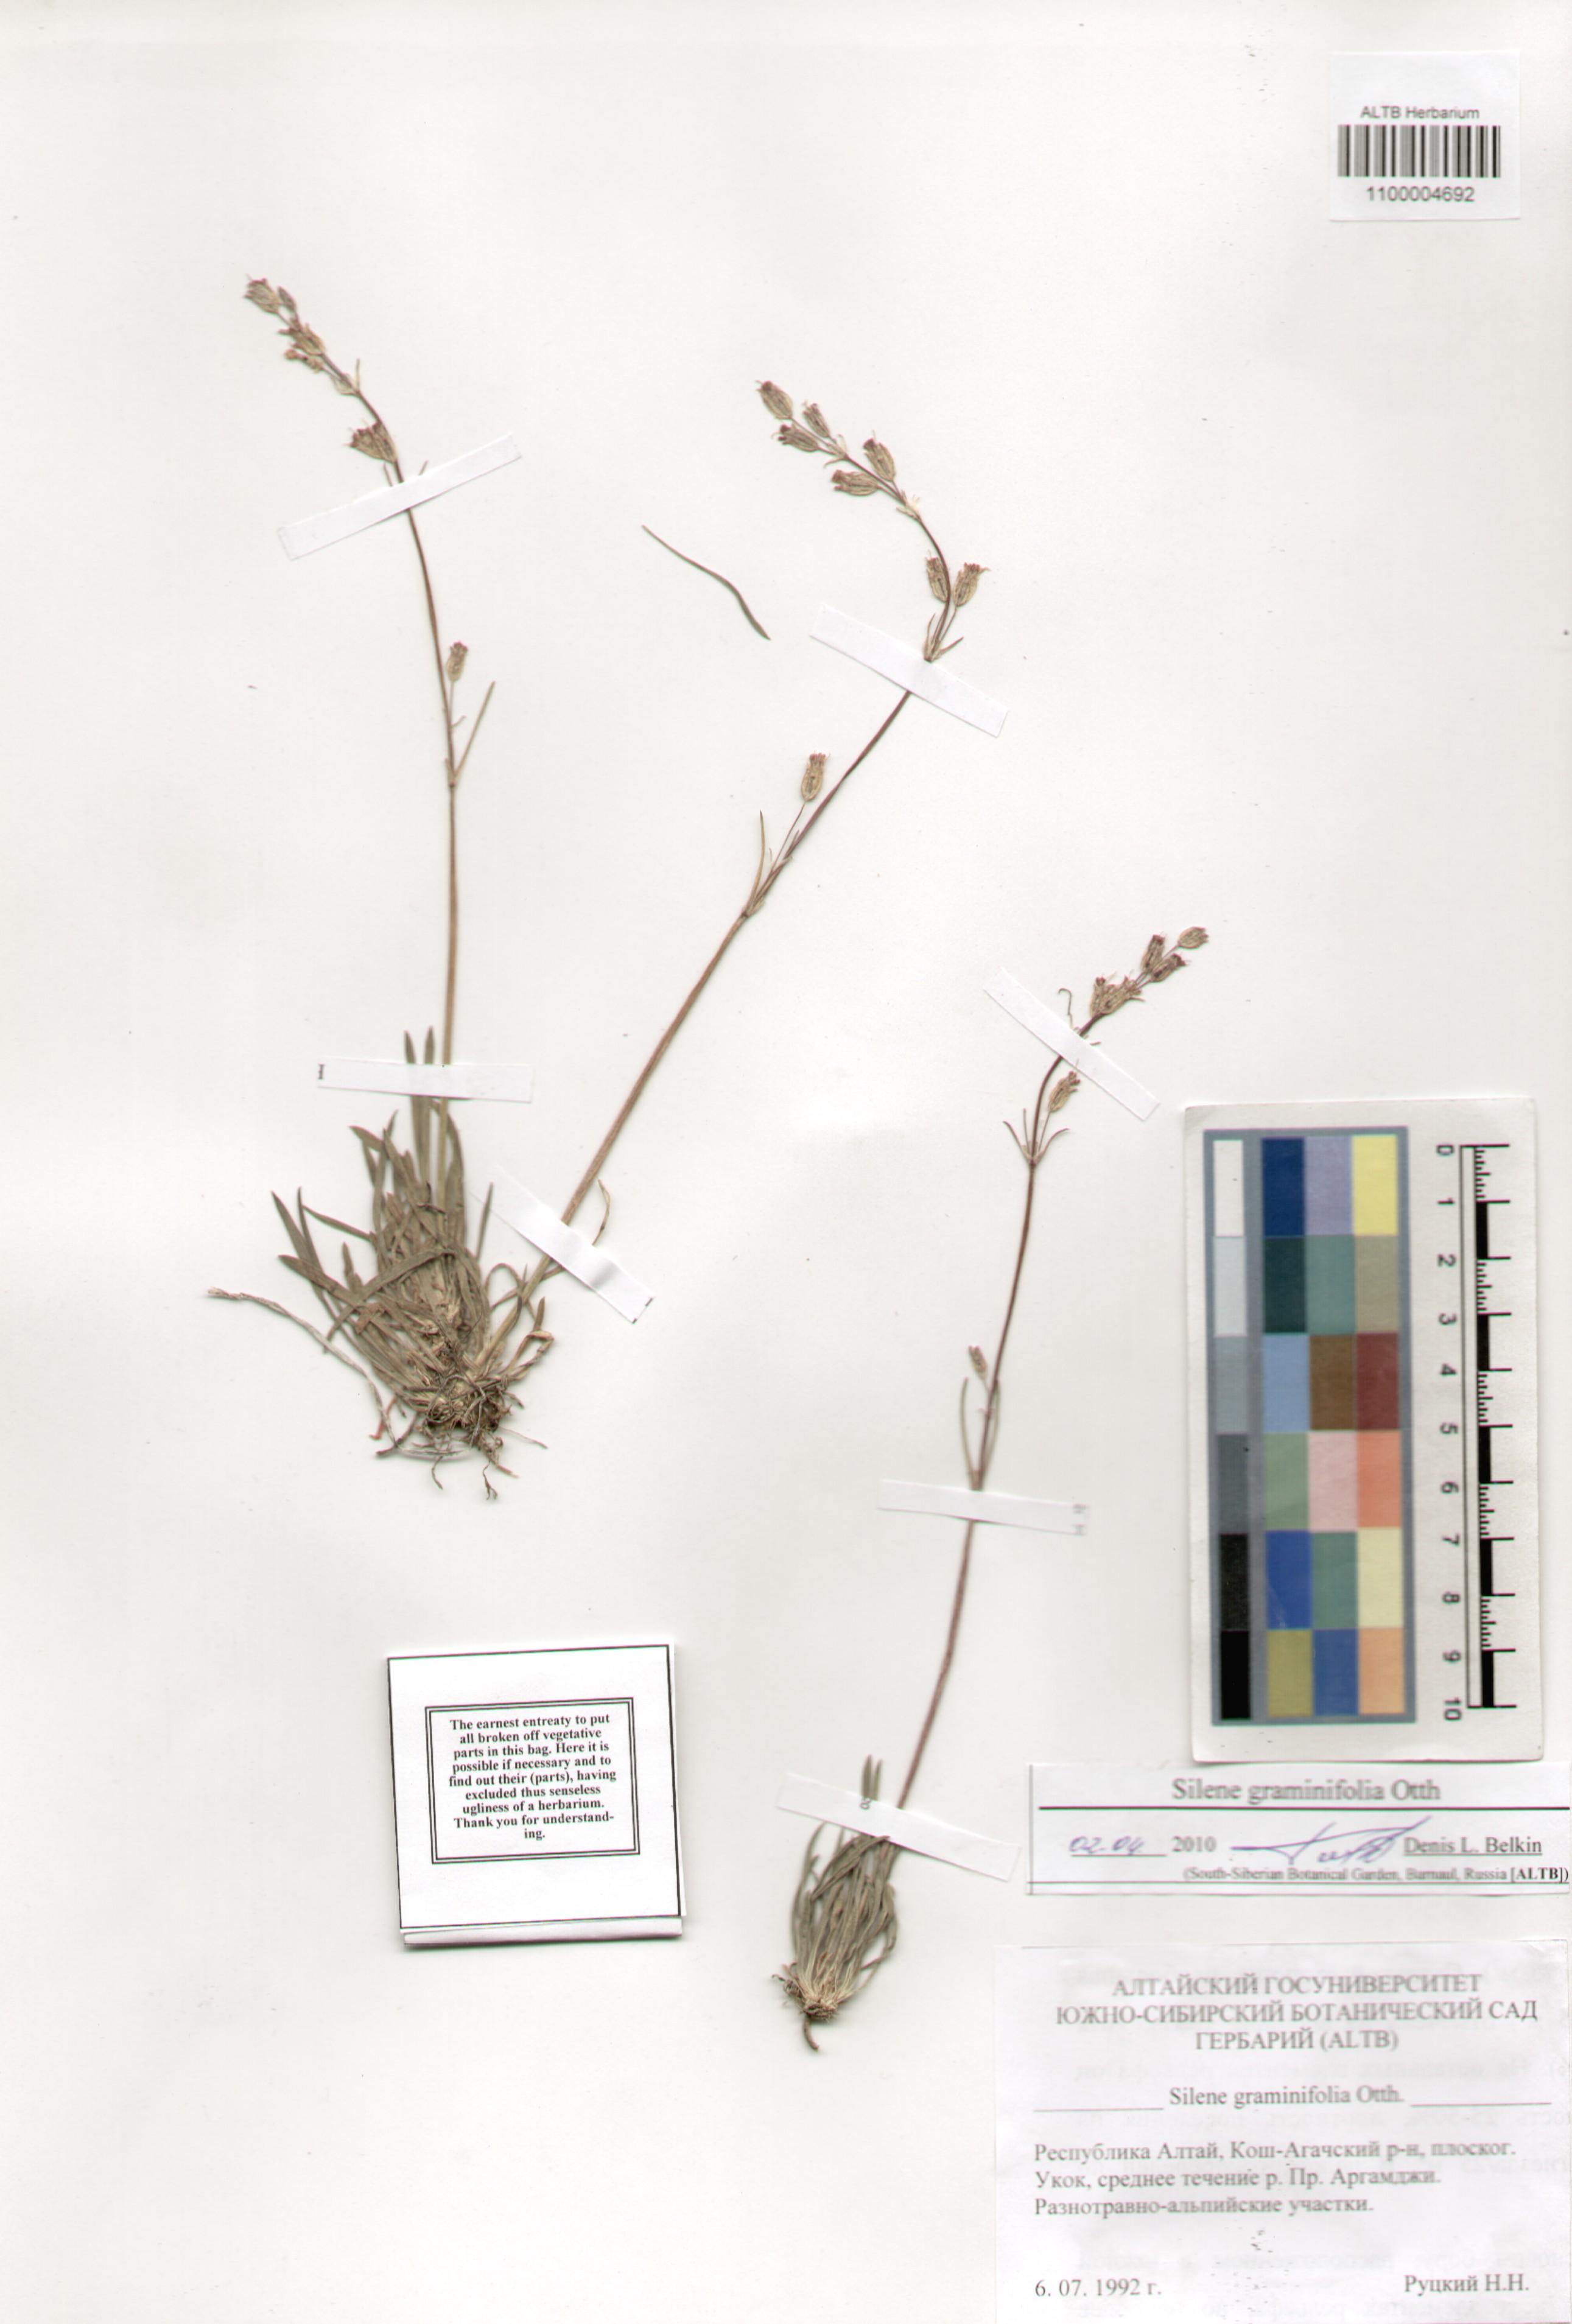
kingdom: Plantae
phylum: Tracheophyta
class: Magnoliopsida
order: Caryophyllales
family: Caryophyllaceae
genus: Silene
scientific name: Silene graminifolia
